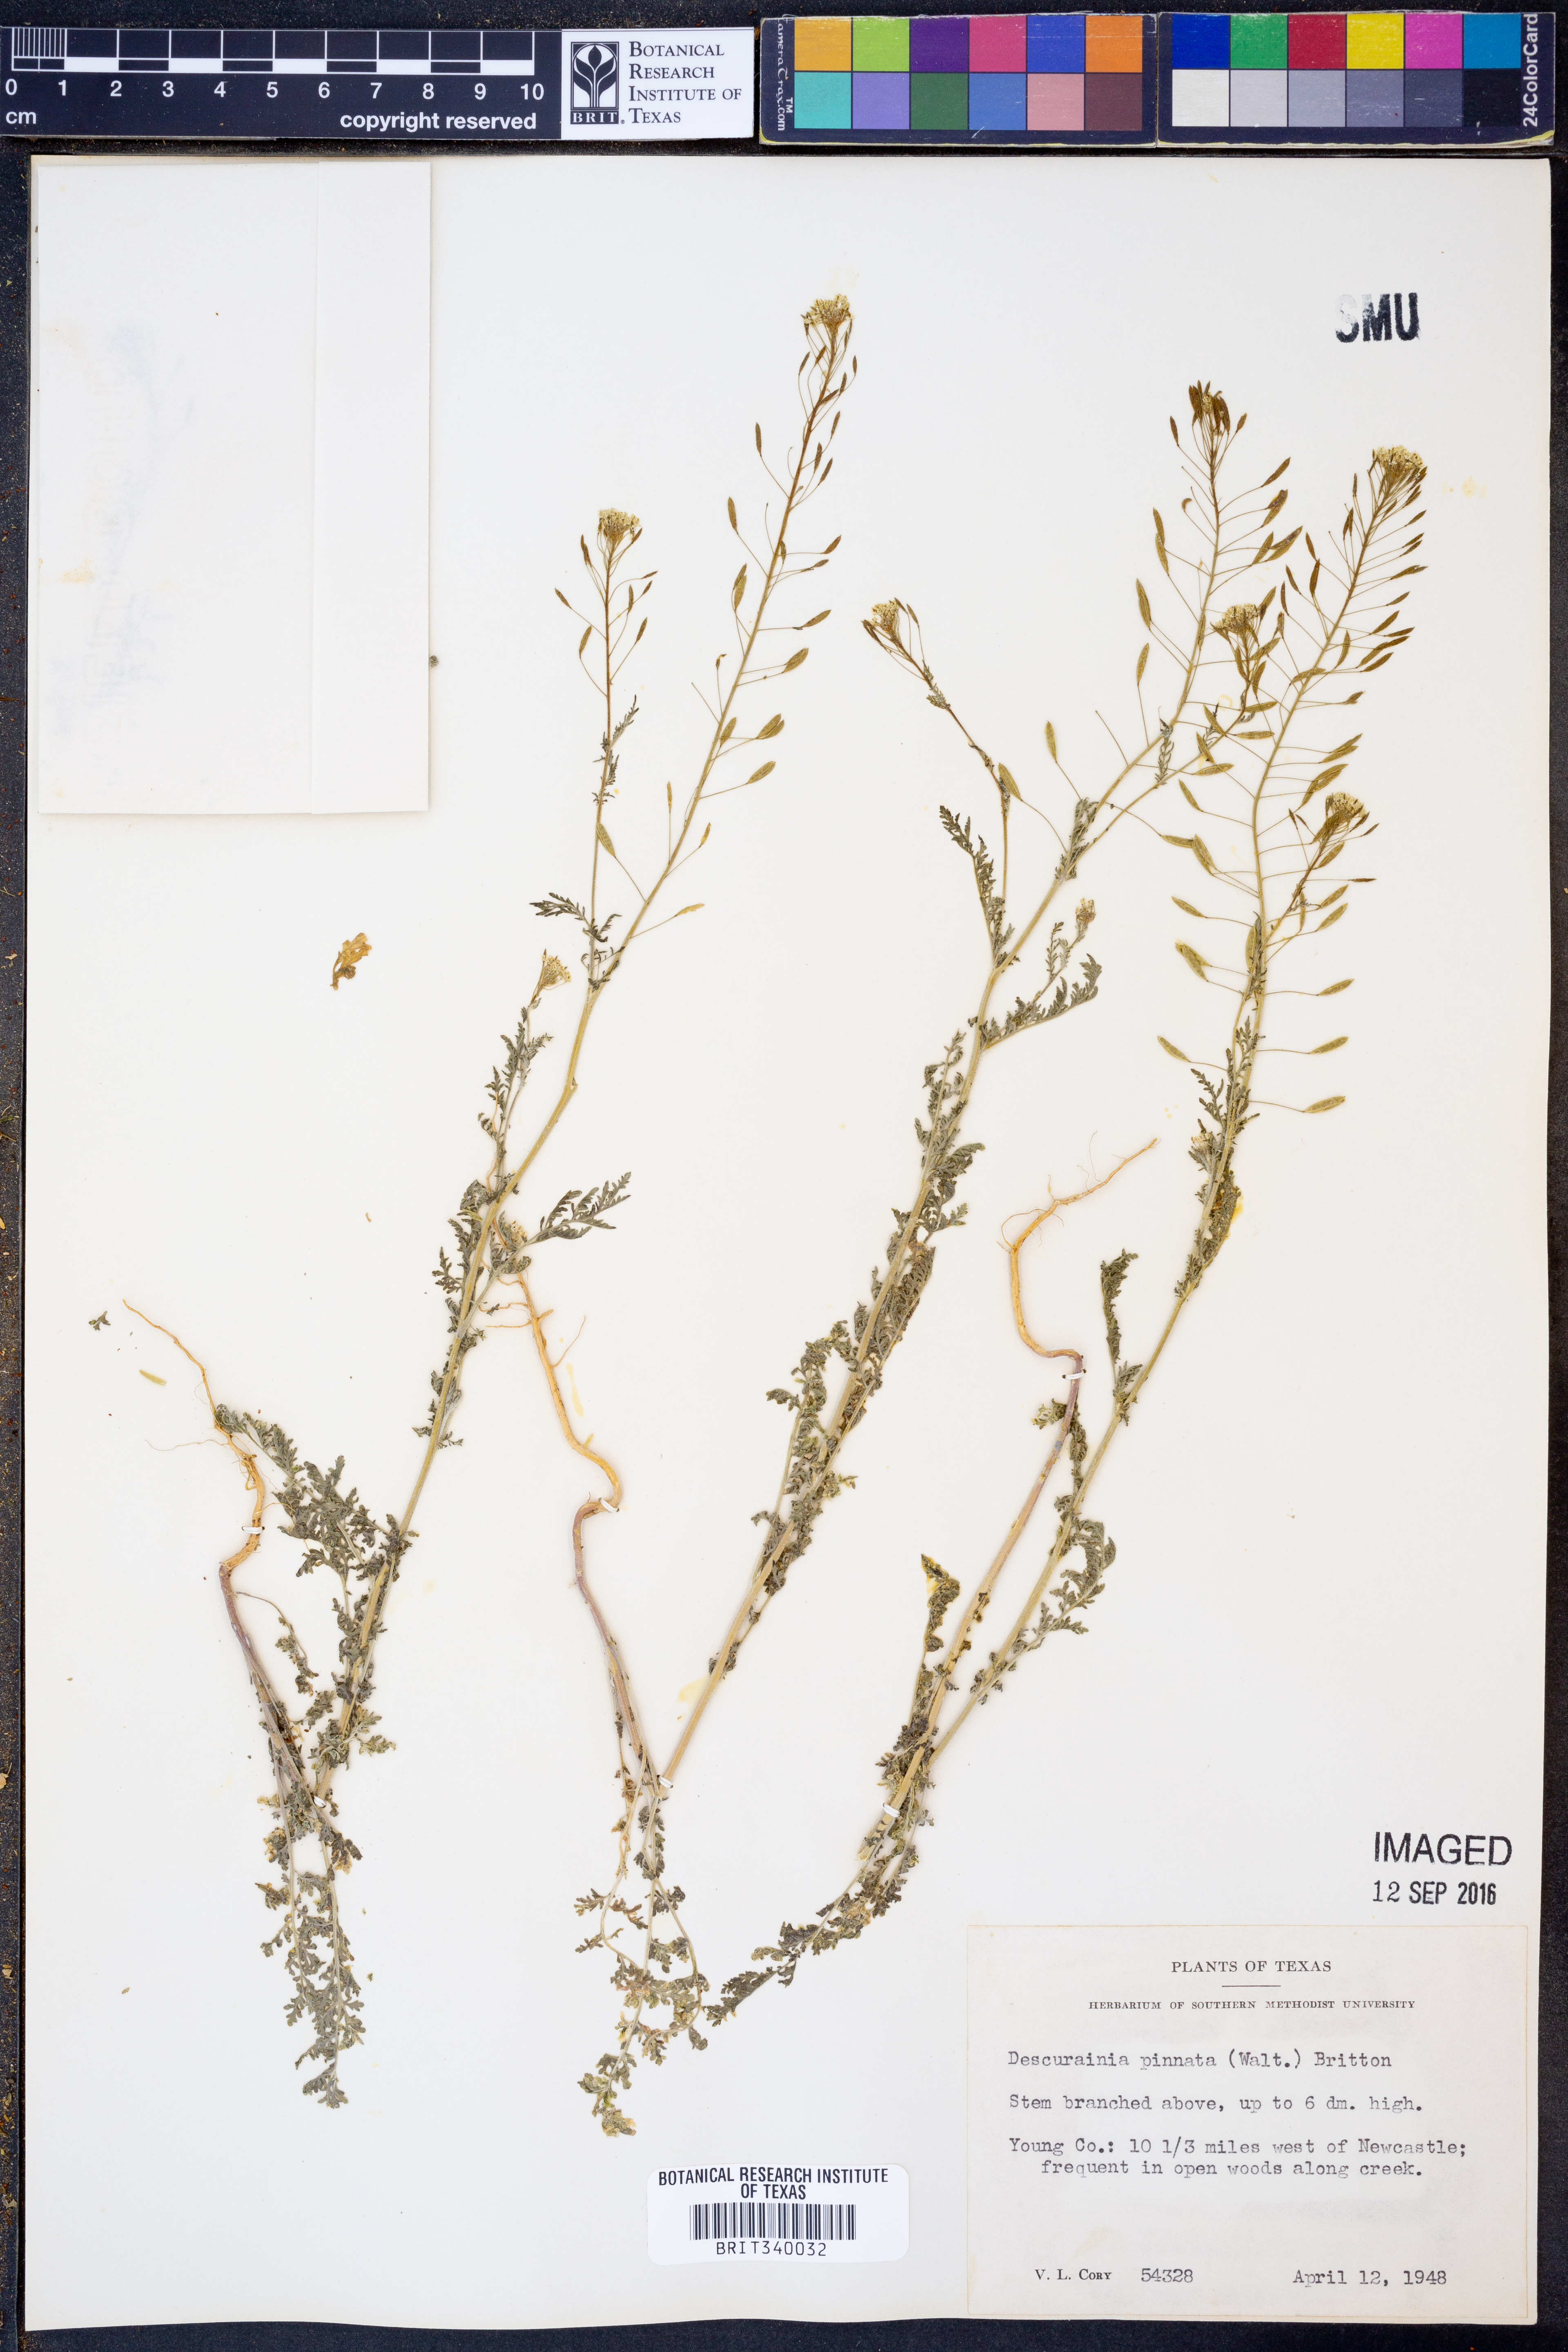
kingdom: Plantae
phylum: Tracheophyta
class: Magnoliopsida
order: Brassicales
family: Brassicaceae
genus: Descurainia
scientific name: Descurainia pinnata
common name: Western tansy mustard
